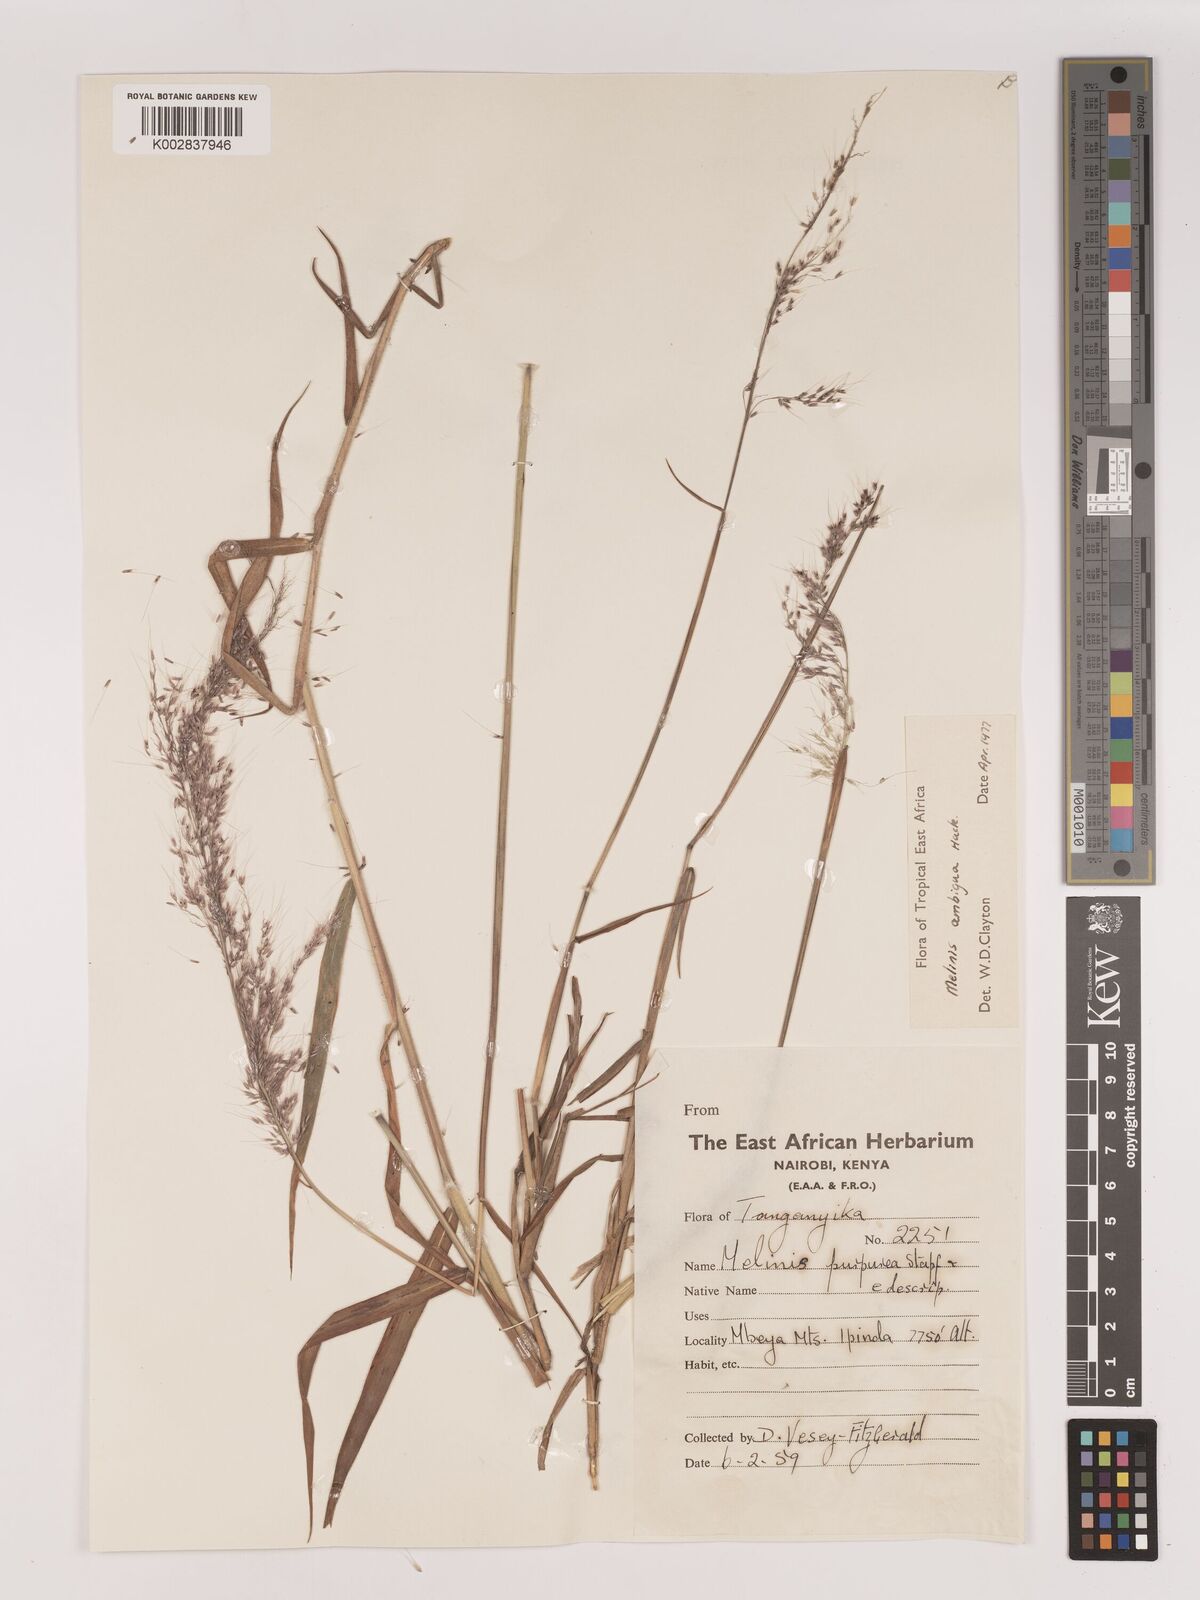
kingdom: Plantae
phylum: Tracheophyta
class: Liliopsida
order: Poales
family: Poaceae
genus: Melinis
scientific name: Melinis ambigua
